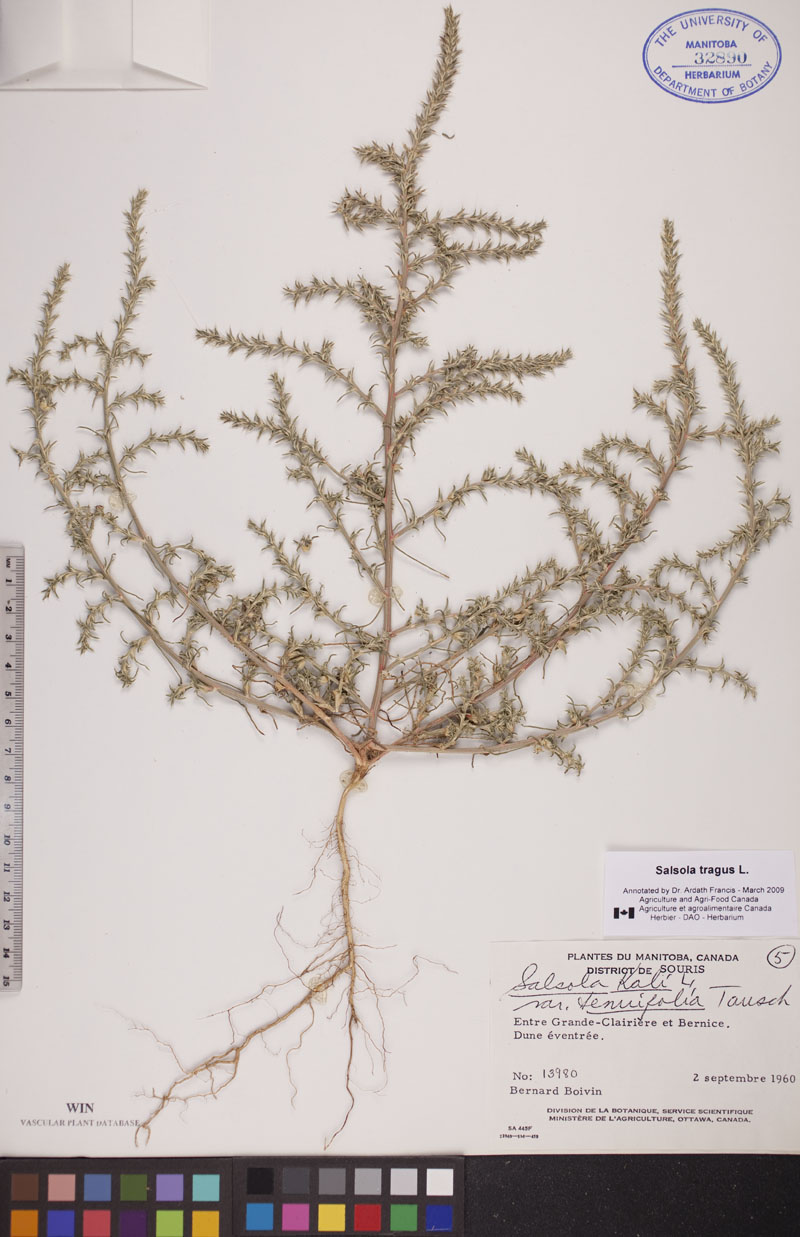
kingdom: Plantae
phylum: Tracheophyta
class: Magnoliopsida
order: Caryophyllales
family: Amaranthaceae
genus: Salsola
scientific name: Salsola tragus
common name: Prickly russian thistle
